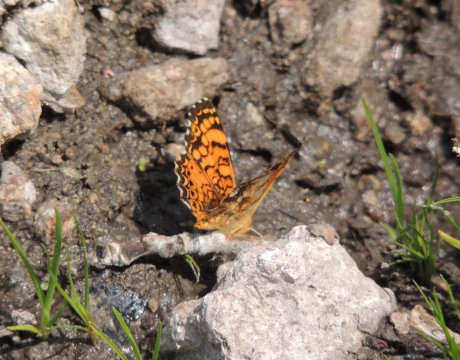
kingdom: Animalia
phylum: Arthropoda
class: Insecta
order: Lepidoptera
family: Nymphalidae
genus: Eresia
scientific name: Eresia aveyrona
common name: Mylitta Crescent
